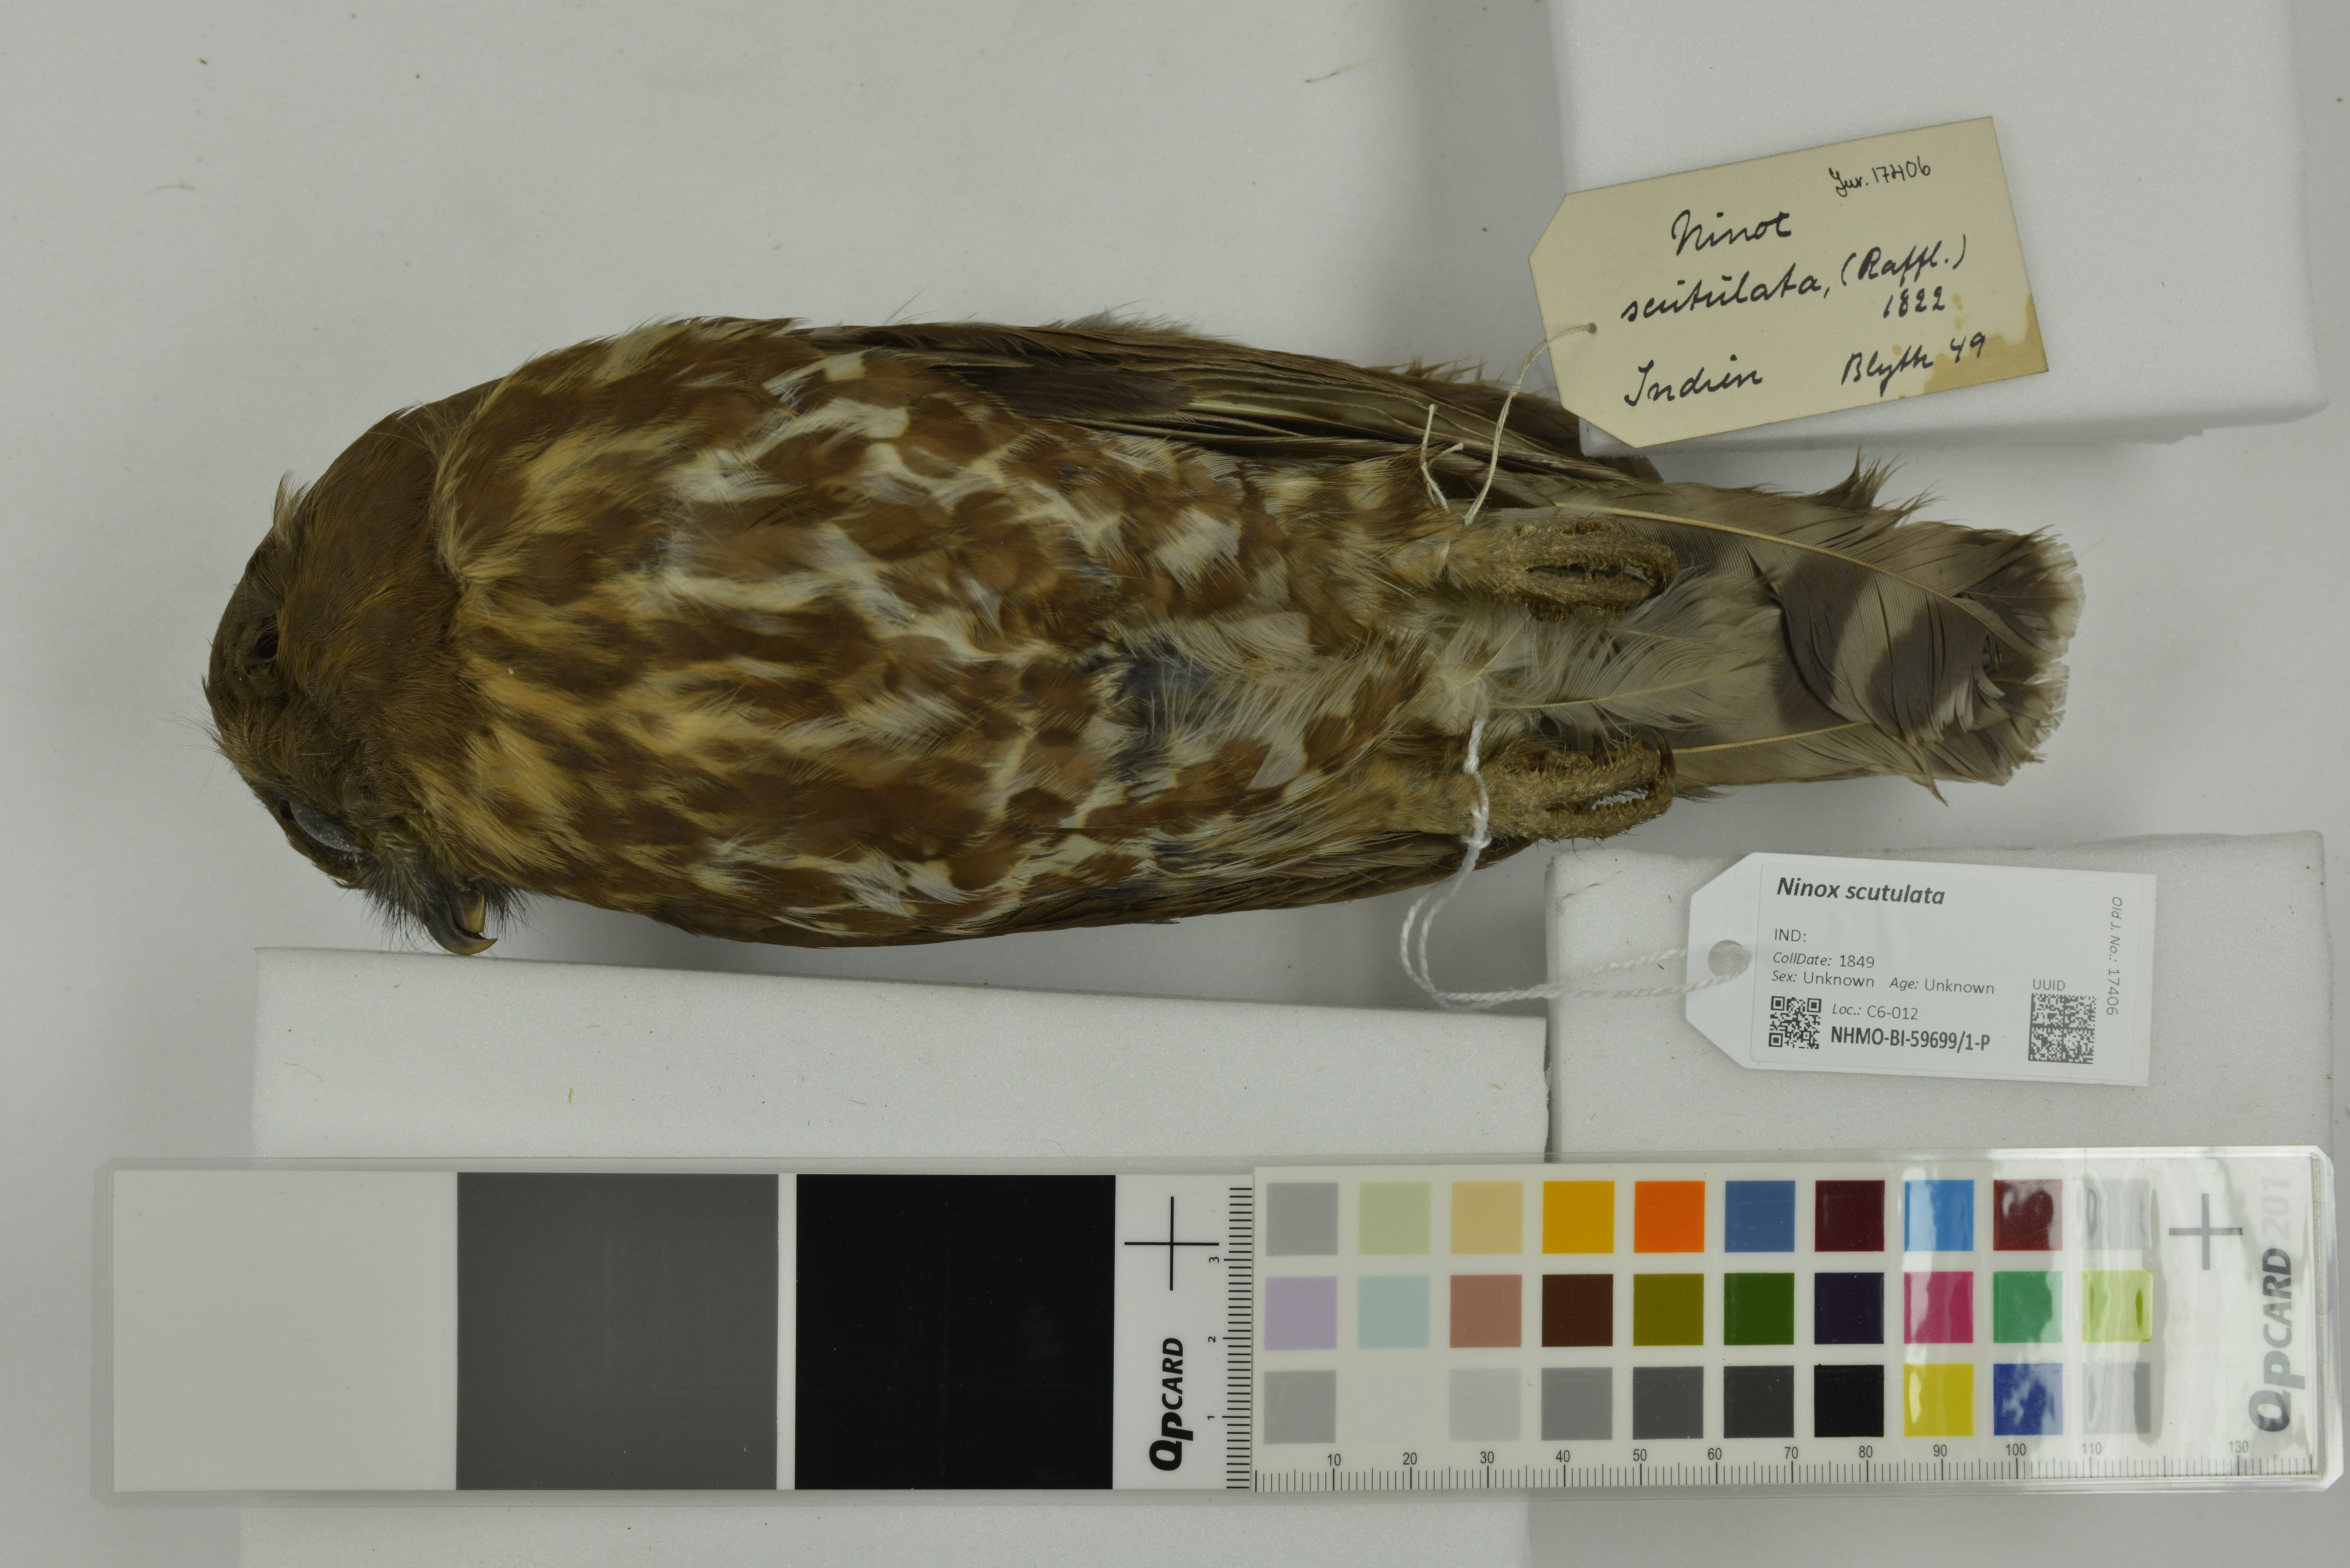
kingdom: Animalia
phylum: Chordata
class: Aves
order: Strigiformes
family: Strigidae
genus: Ninox
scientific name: Ninox scutulata
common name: Brown hawk-owl
